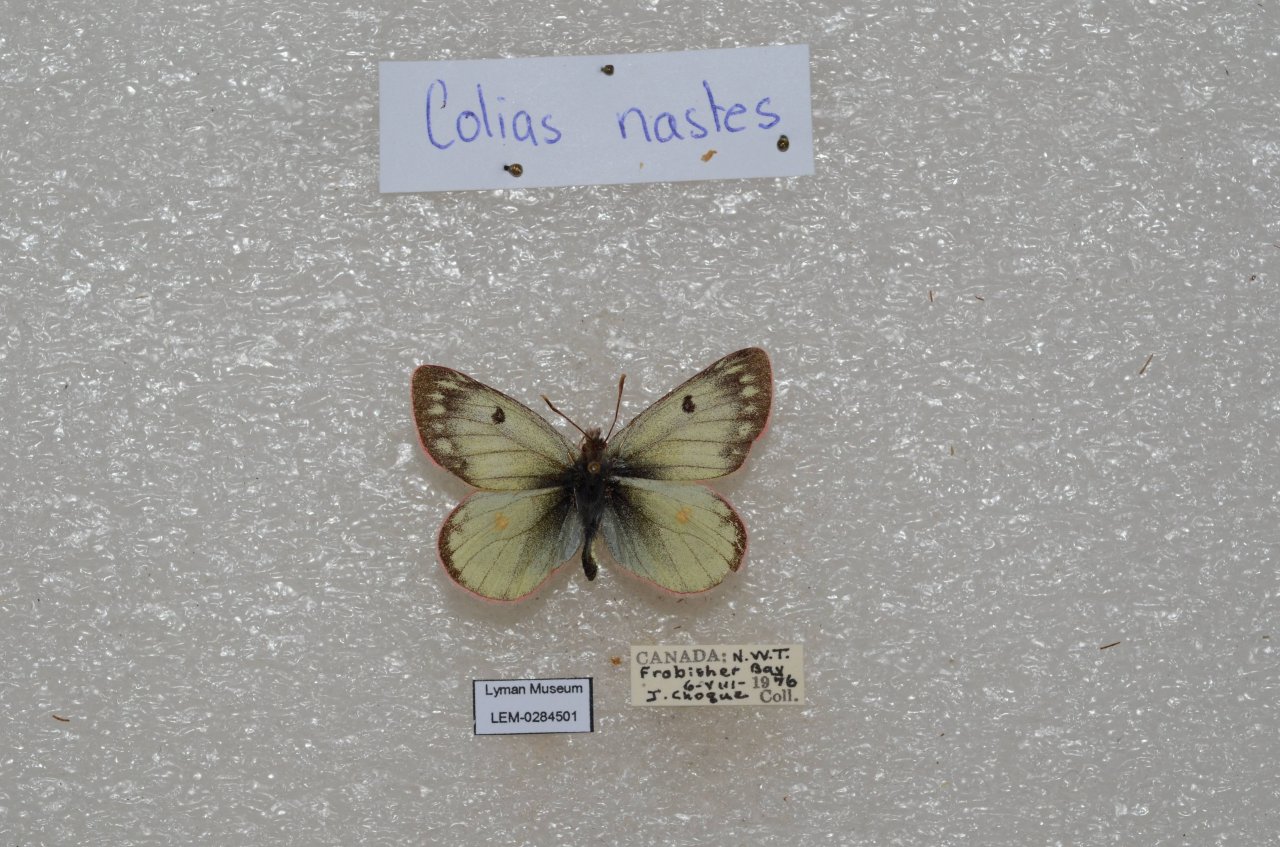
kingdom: Animalia
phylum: Arthropoda
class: Insecta
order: Lepidoptera
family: Pieridae
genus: Colias
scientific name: Colias nastes
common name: Labrador Sulphur
